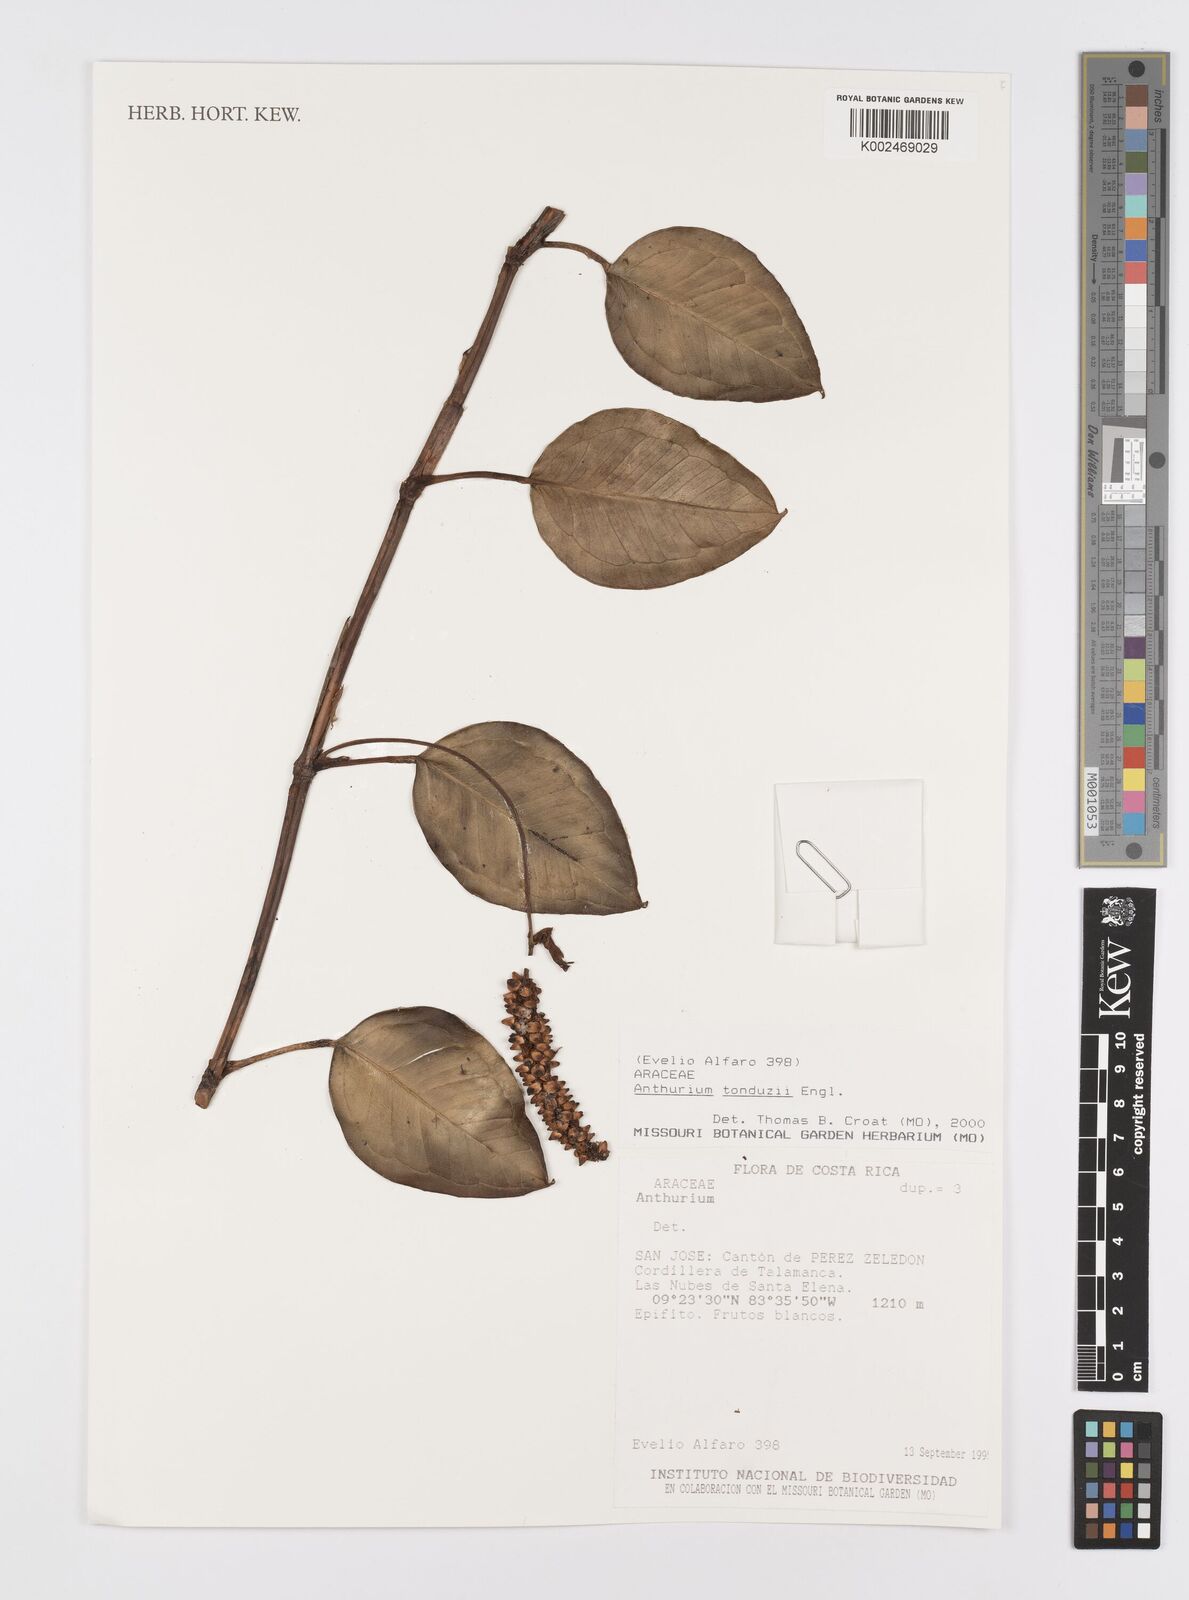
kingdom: Plantae
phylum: Tracheophyta
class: Liliopsida
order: Alismatales
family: Araceae
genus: Anthurium
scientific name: Anthurium tonduzii
